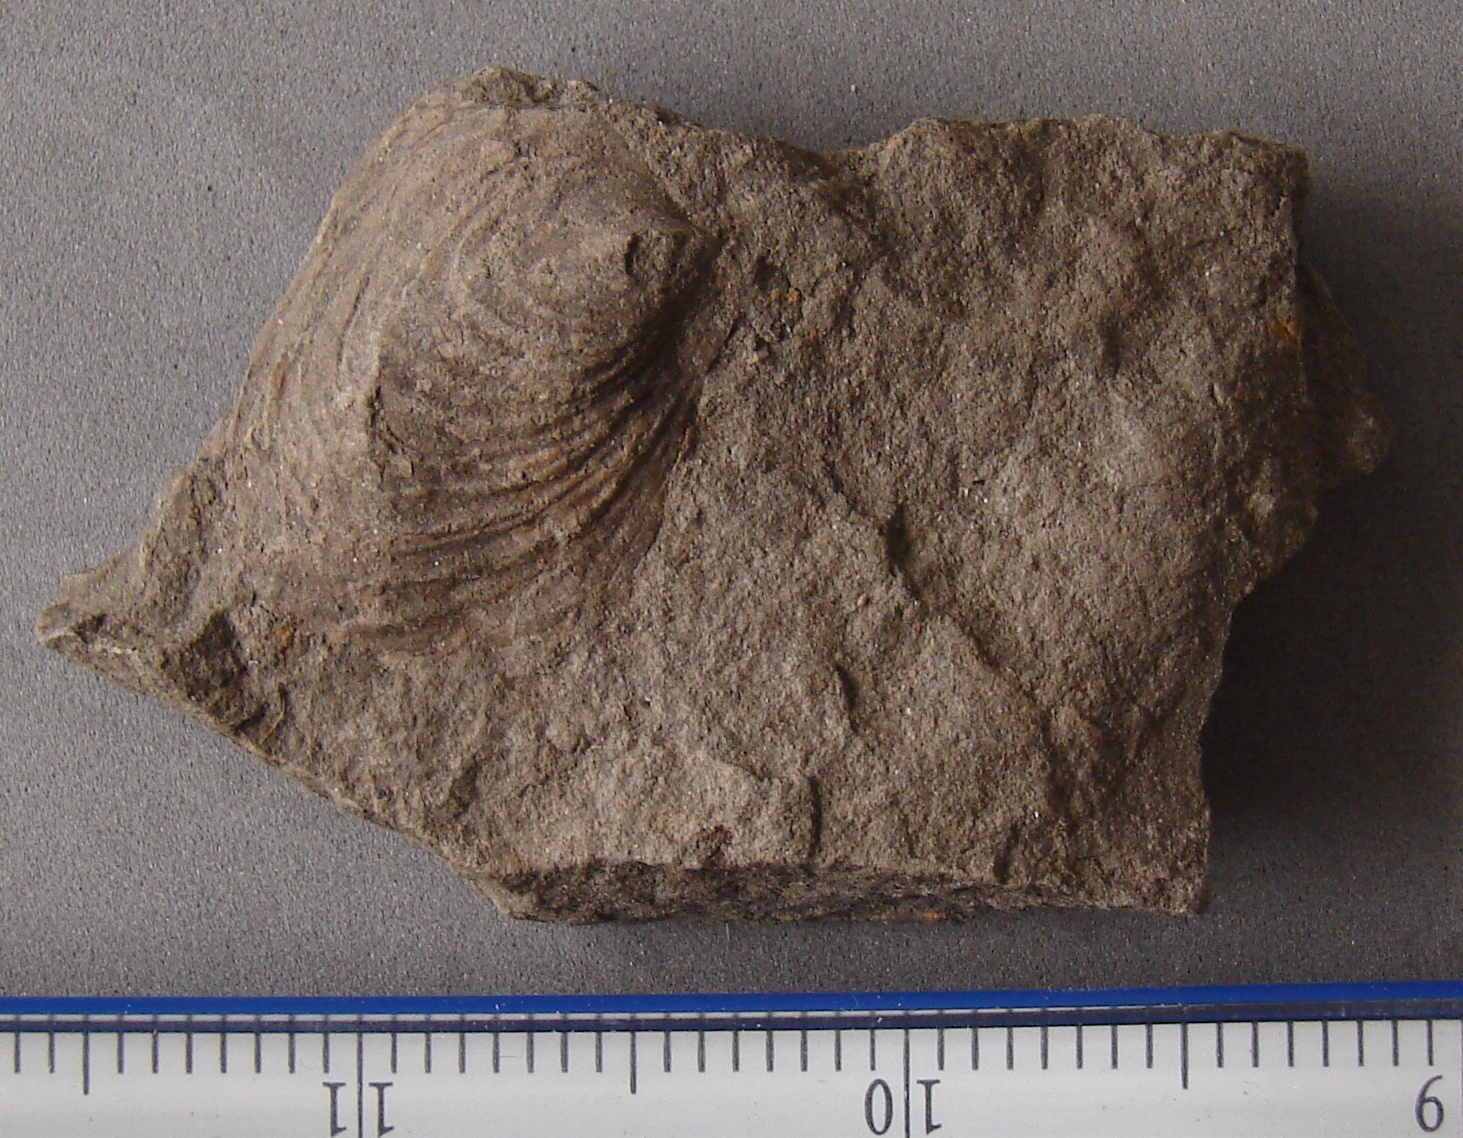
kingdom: Animalia
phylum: Mollusca
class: Bivalvia
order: Myalinida
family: Inoceramidae
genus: Mytiloceramus
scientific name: Mytiloceramus Inoceramus polyplocus
